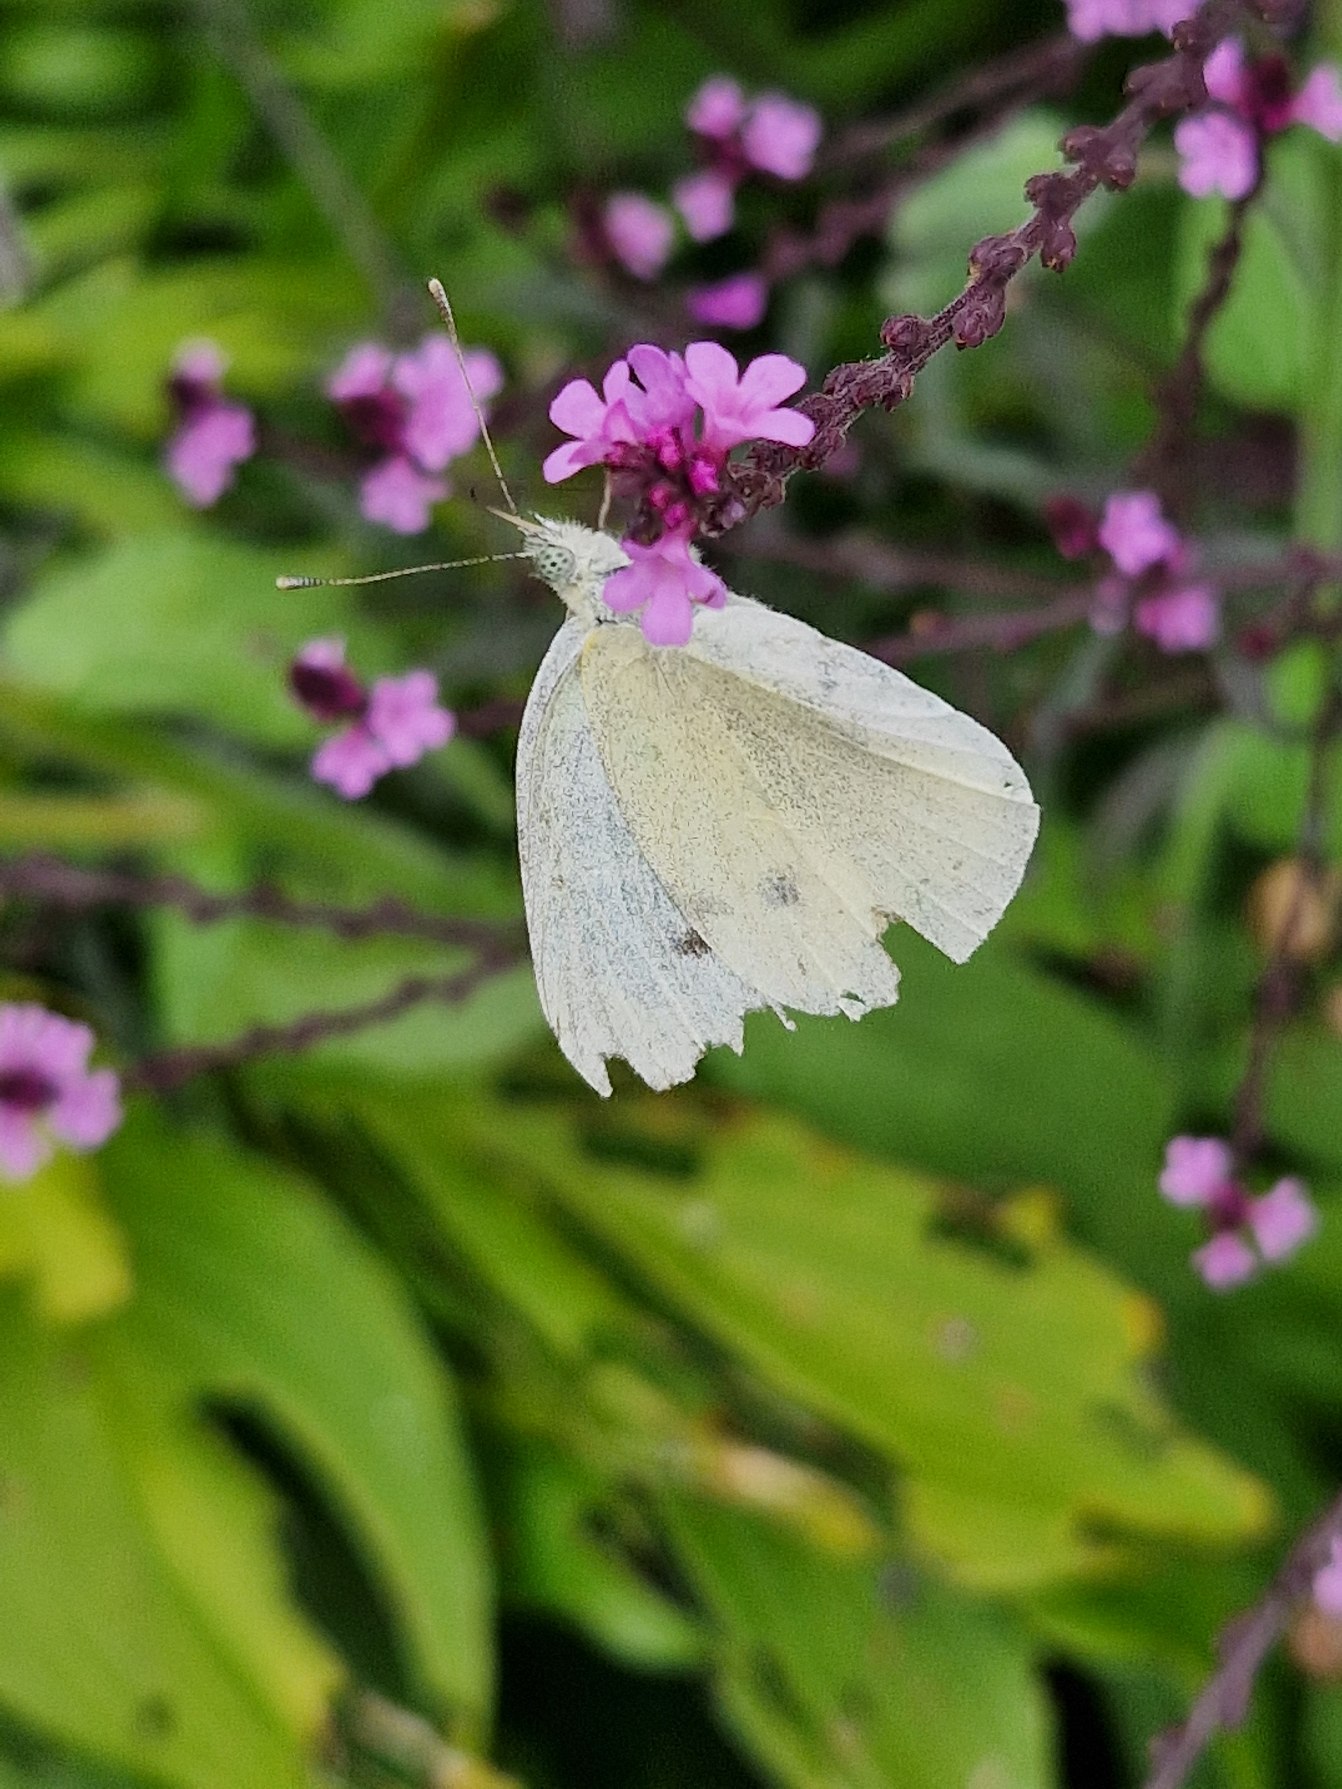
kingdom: Animalia
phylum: Arthropoda
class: Insecta
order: Lepidoptera
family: Pieridae
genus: Pieris
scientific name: Pieris rapae
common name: Lille kålsommerfugl
